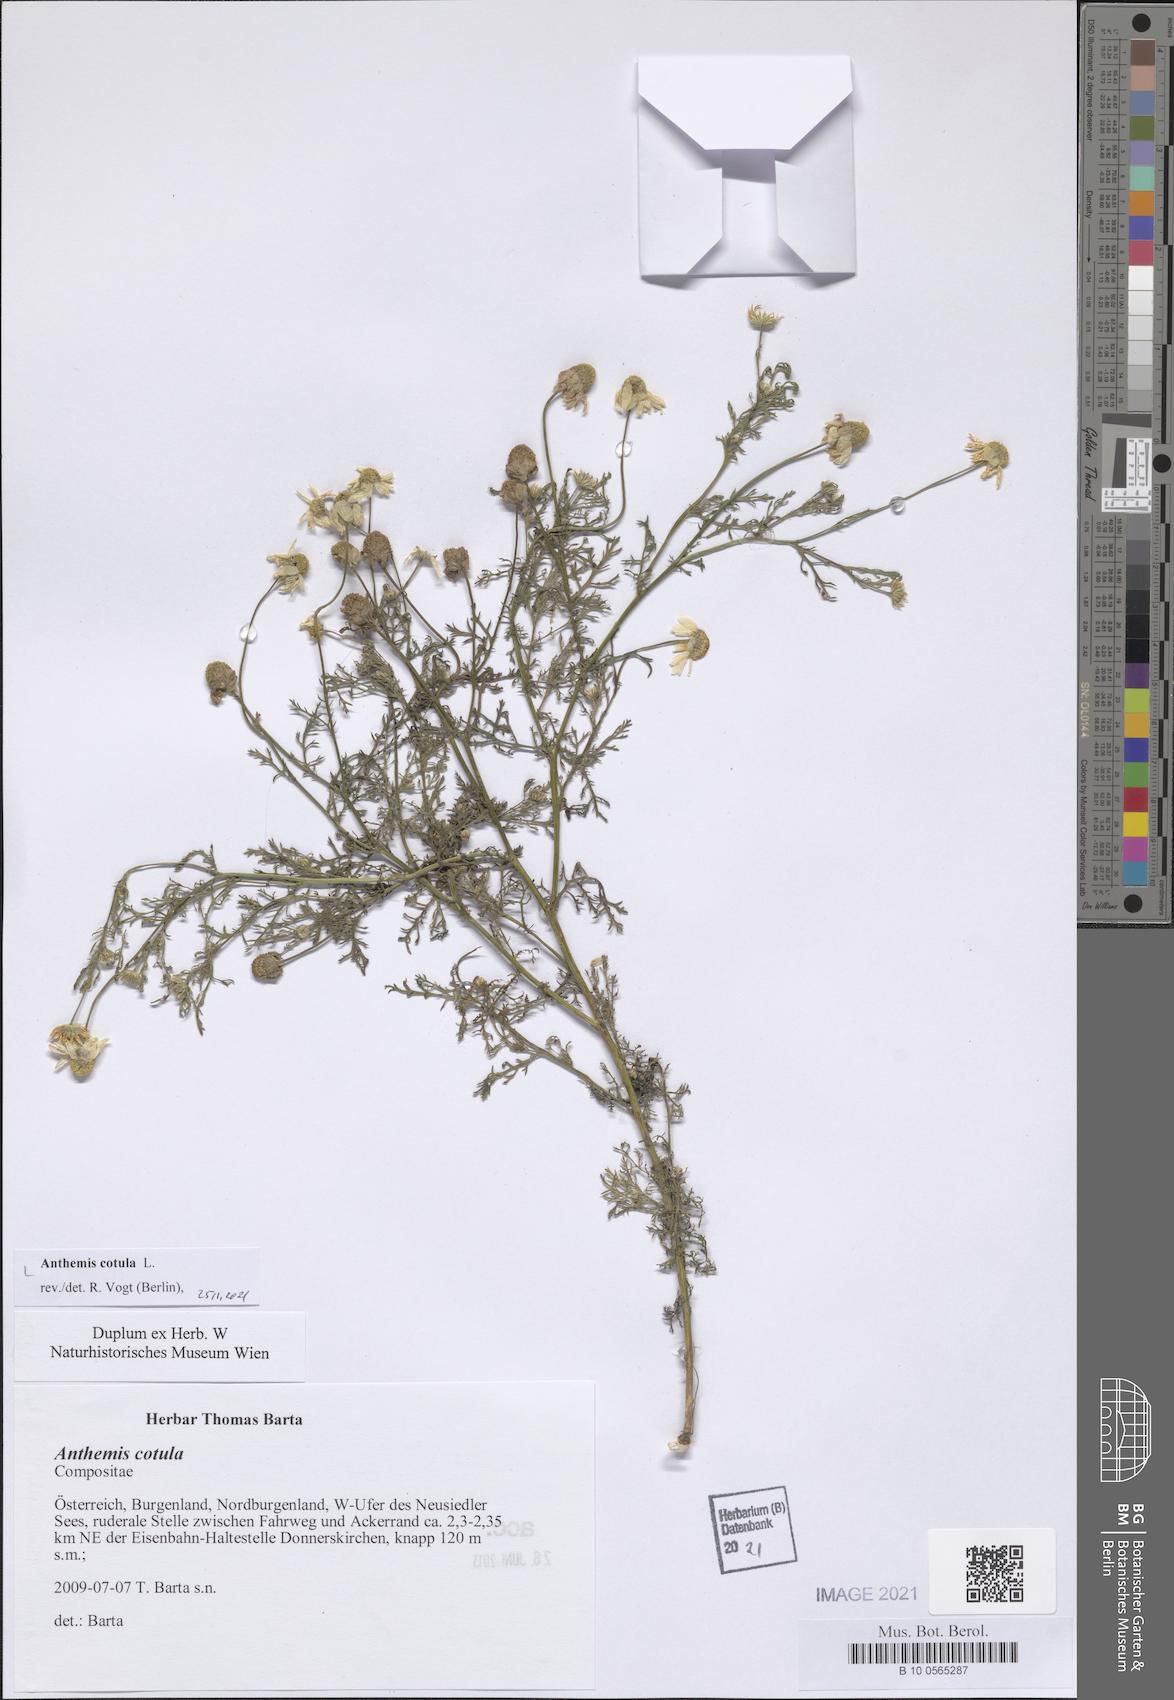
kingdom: Plantae
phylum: Tracheophyta
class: Magnoliopsida
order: Asterales
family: Asteraceae
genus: Anthemis
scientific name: Anthemis cotula
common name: Stinking chamomile
